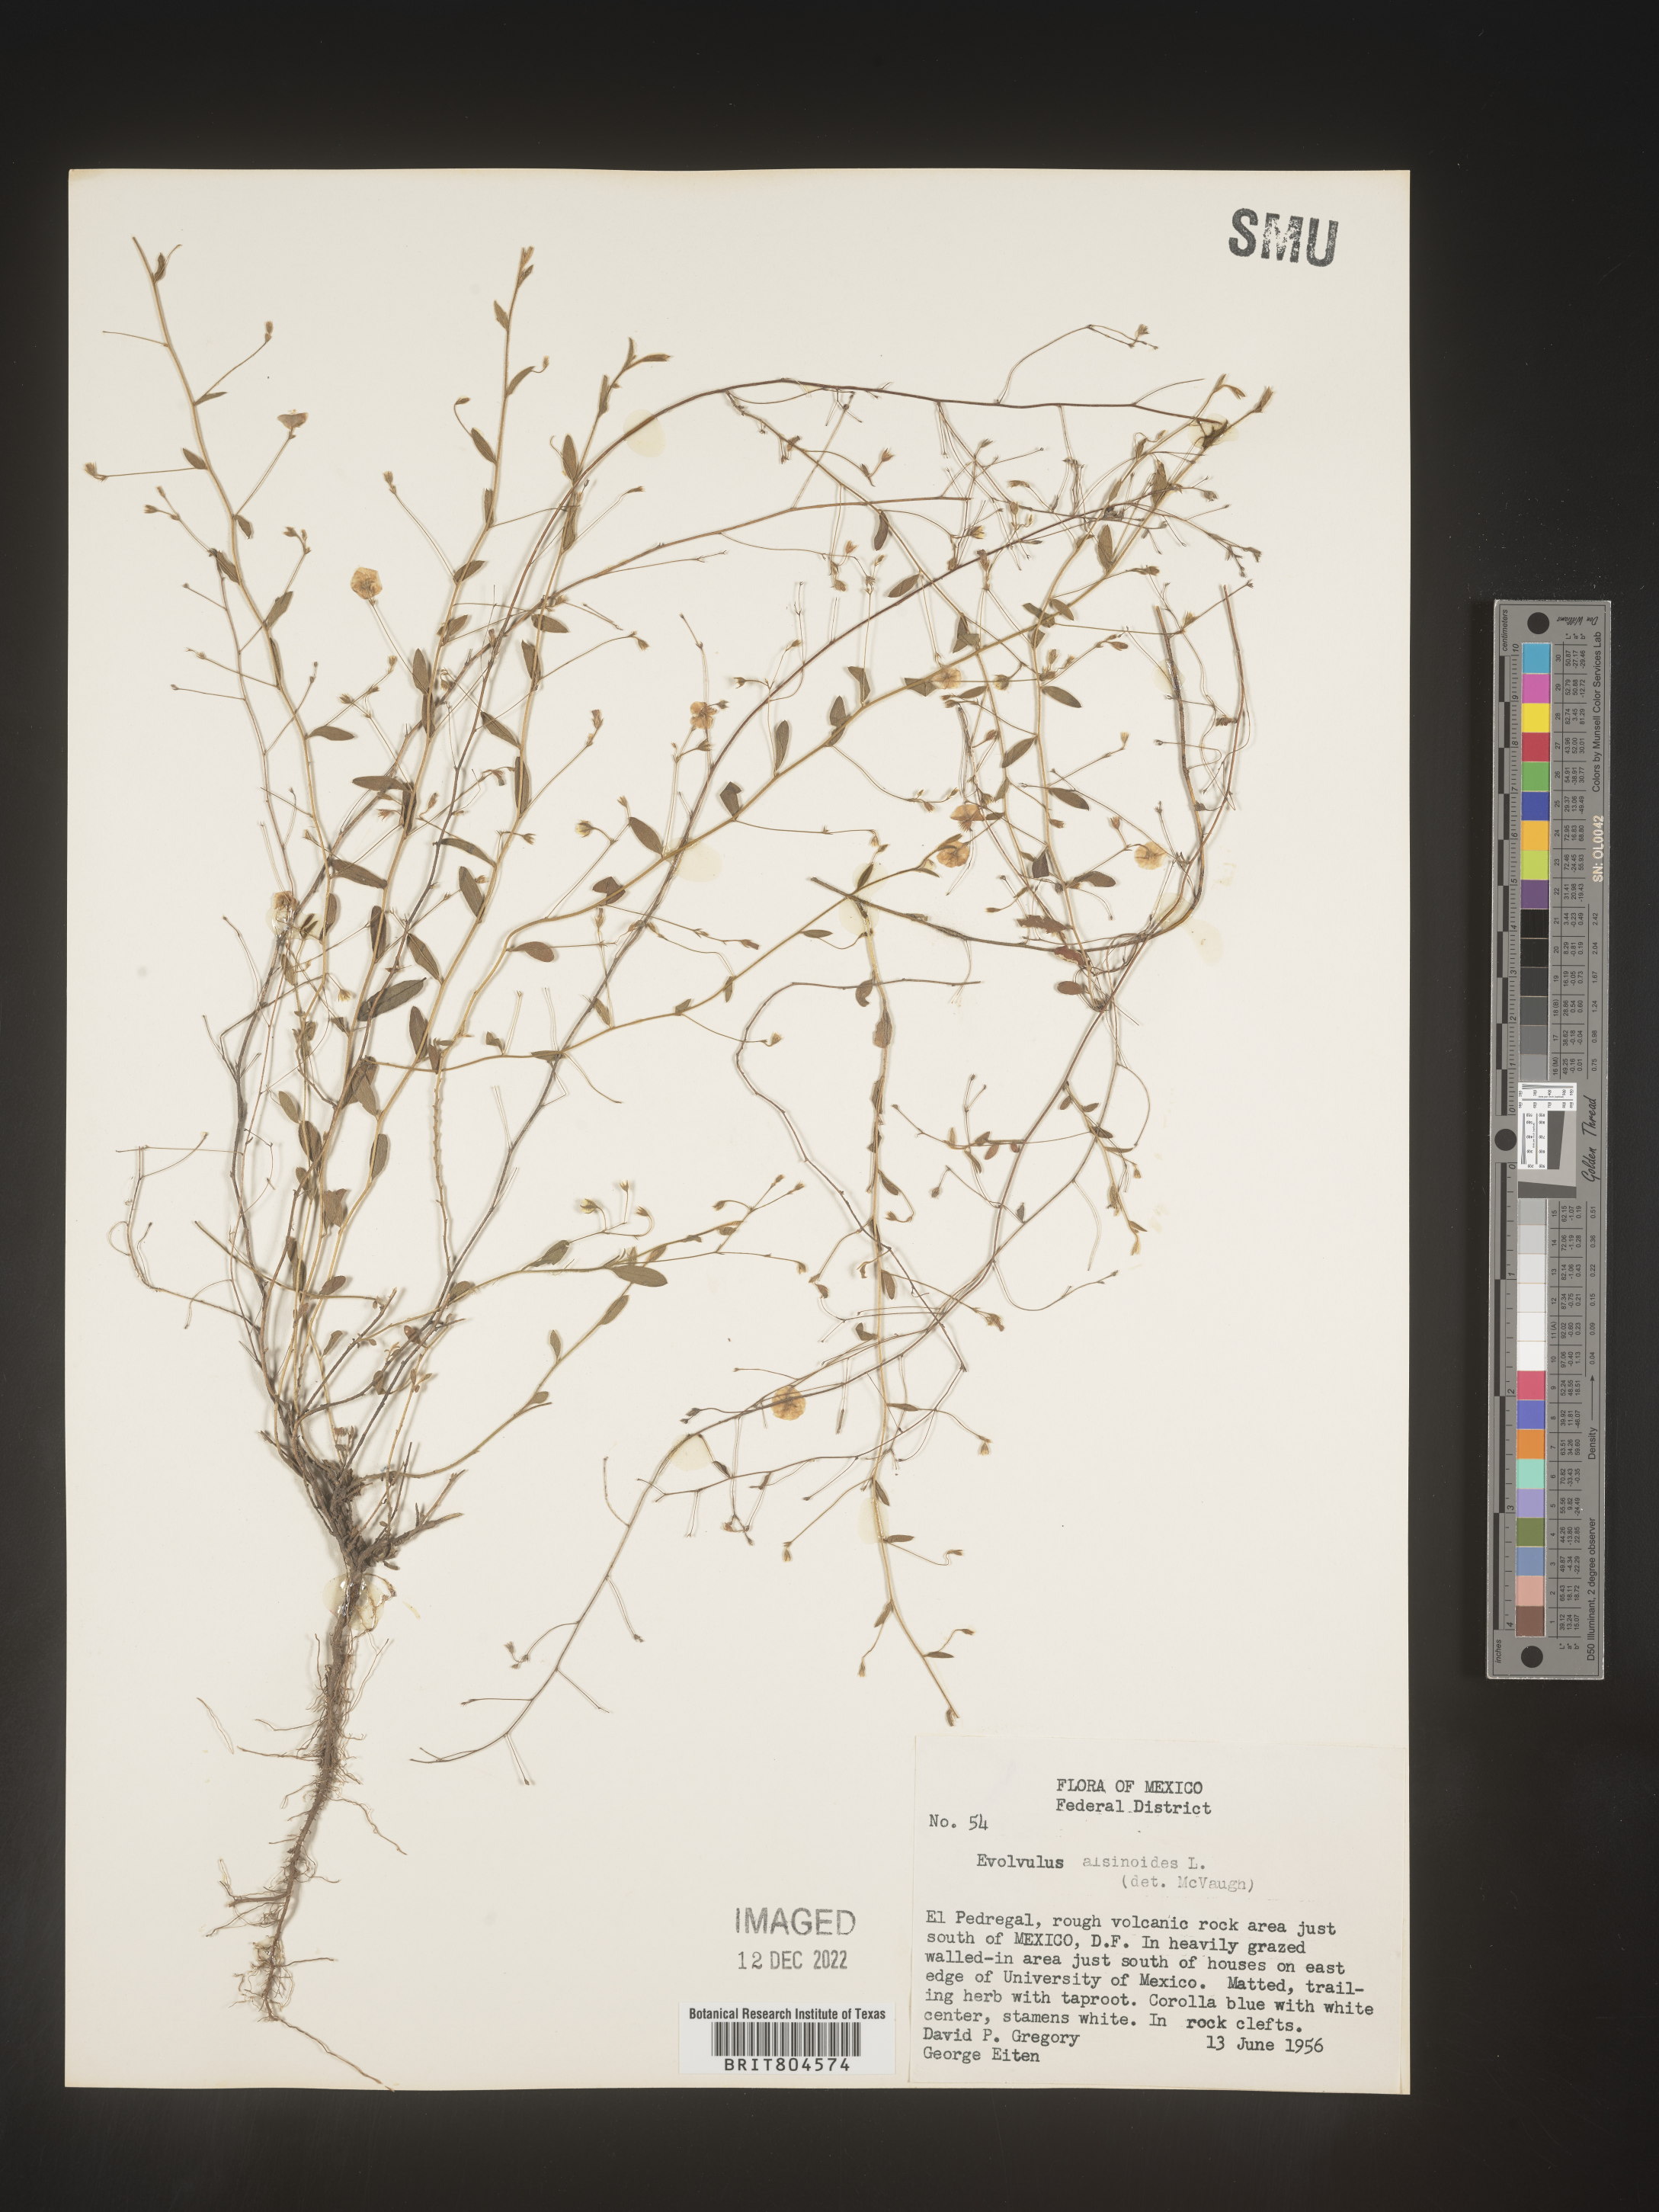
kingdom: Plantae
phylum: Tracheophyta
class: Magnoliopsida
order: Solanales
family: Convolvulaceae
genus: Evolvulus
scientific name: Evolvulus
